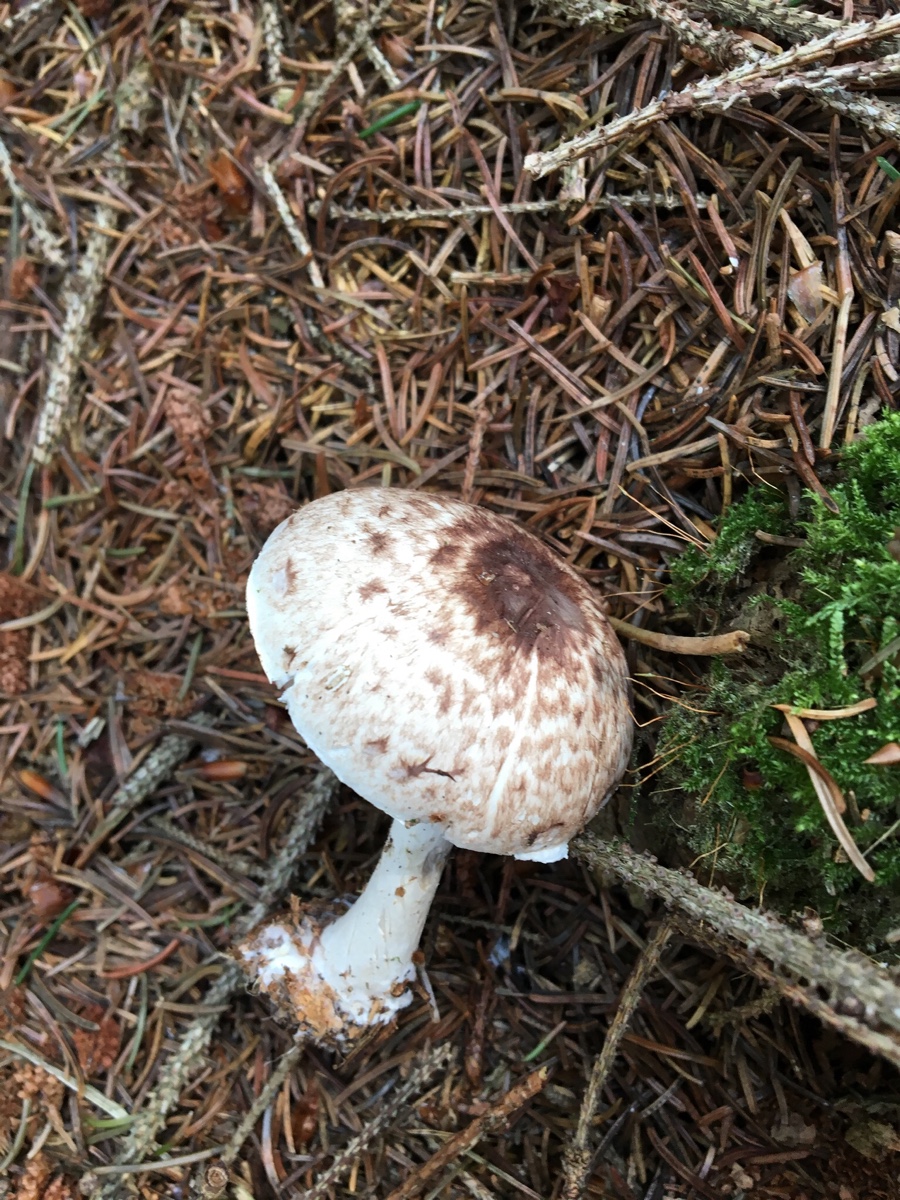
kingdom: Fungi
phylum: Basidiomycota
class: Agaricomycetes
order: Agaricales
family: Agaricaceae
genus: Agaricus
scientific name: Agaricus impudicus
